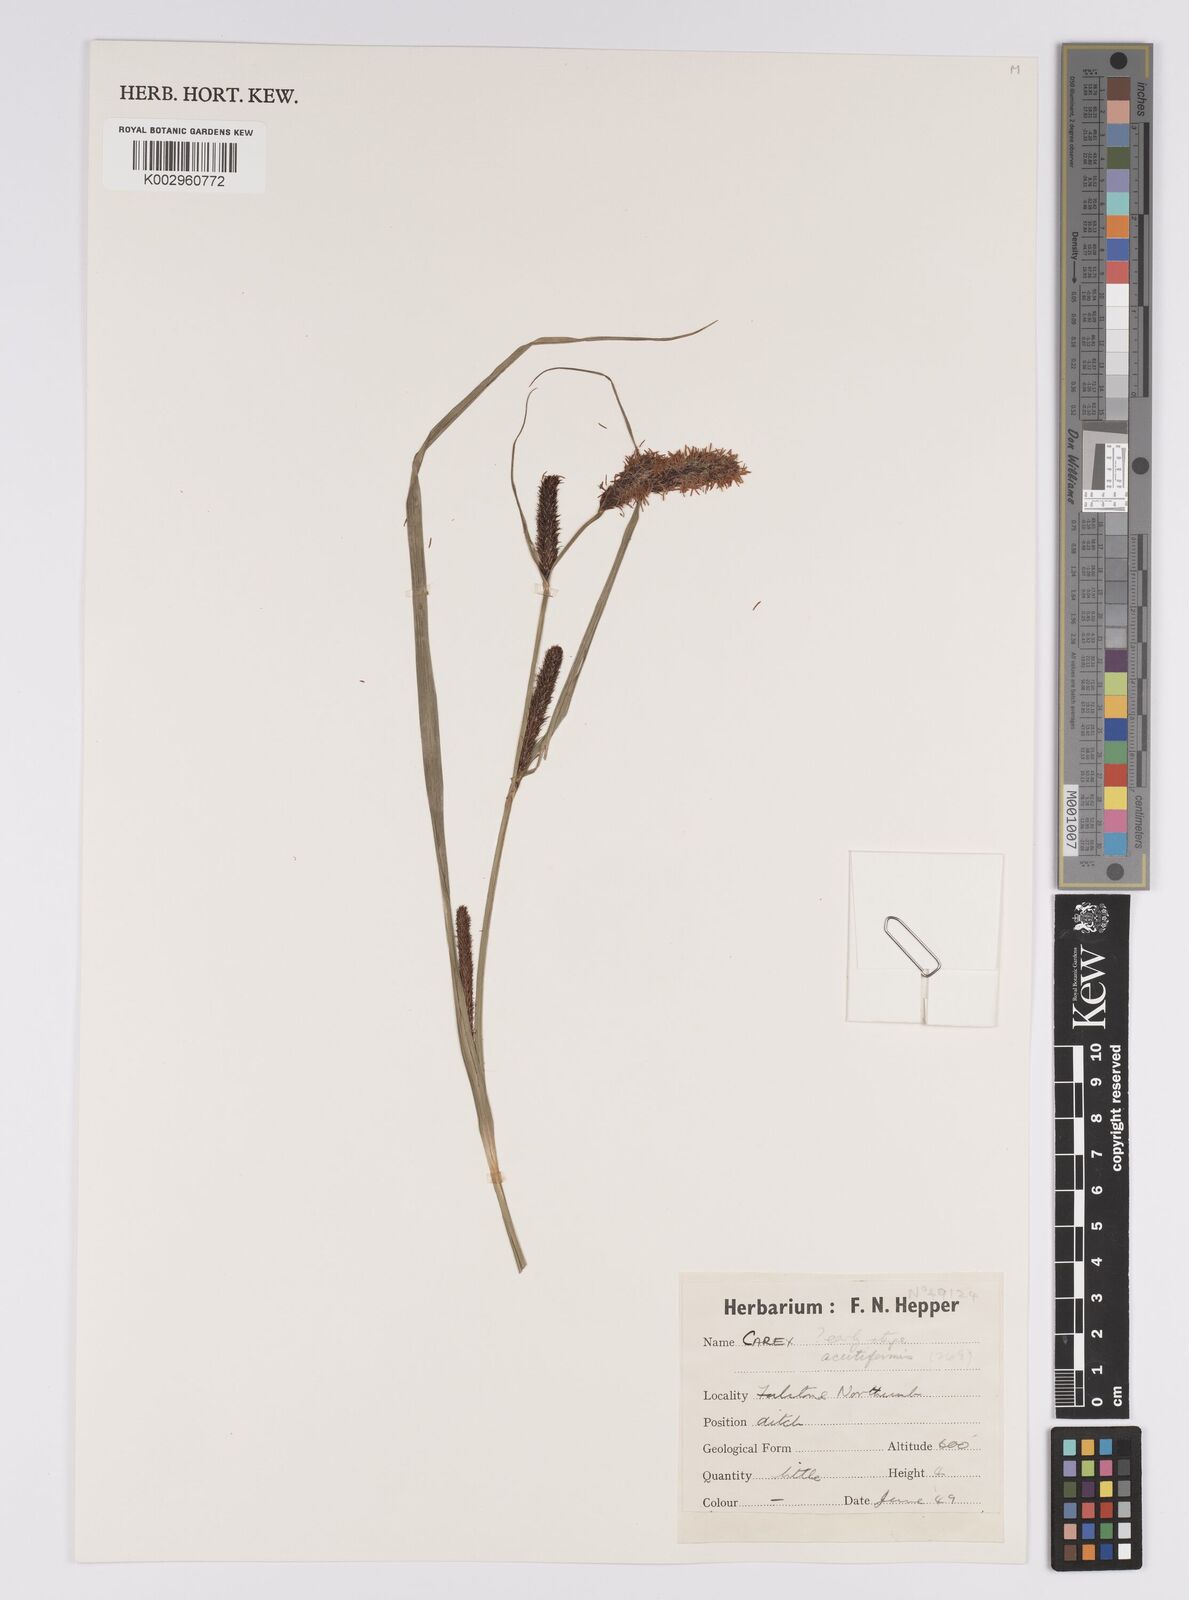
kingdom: Plantae
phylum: Tracheophyta
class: Liliopsida
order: Poales
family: Cyperaceae
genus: Carex
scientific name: Carex acutiformis
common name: Lesser pond-sedge
